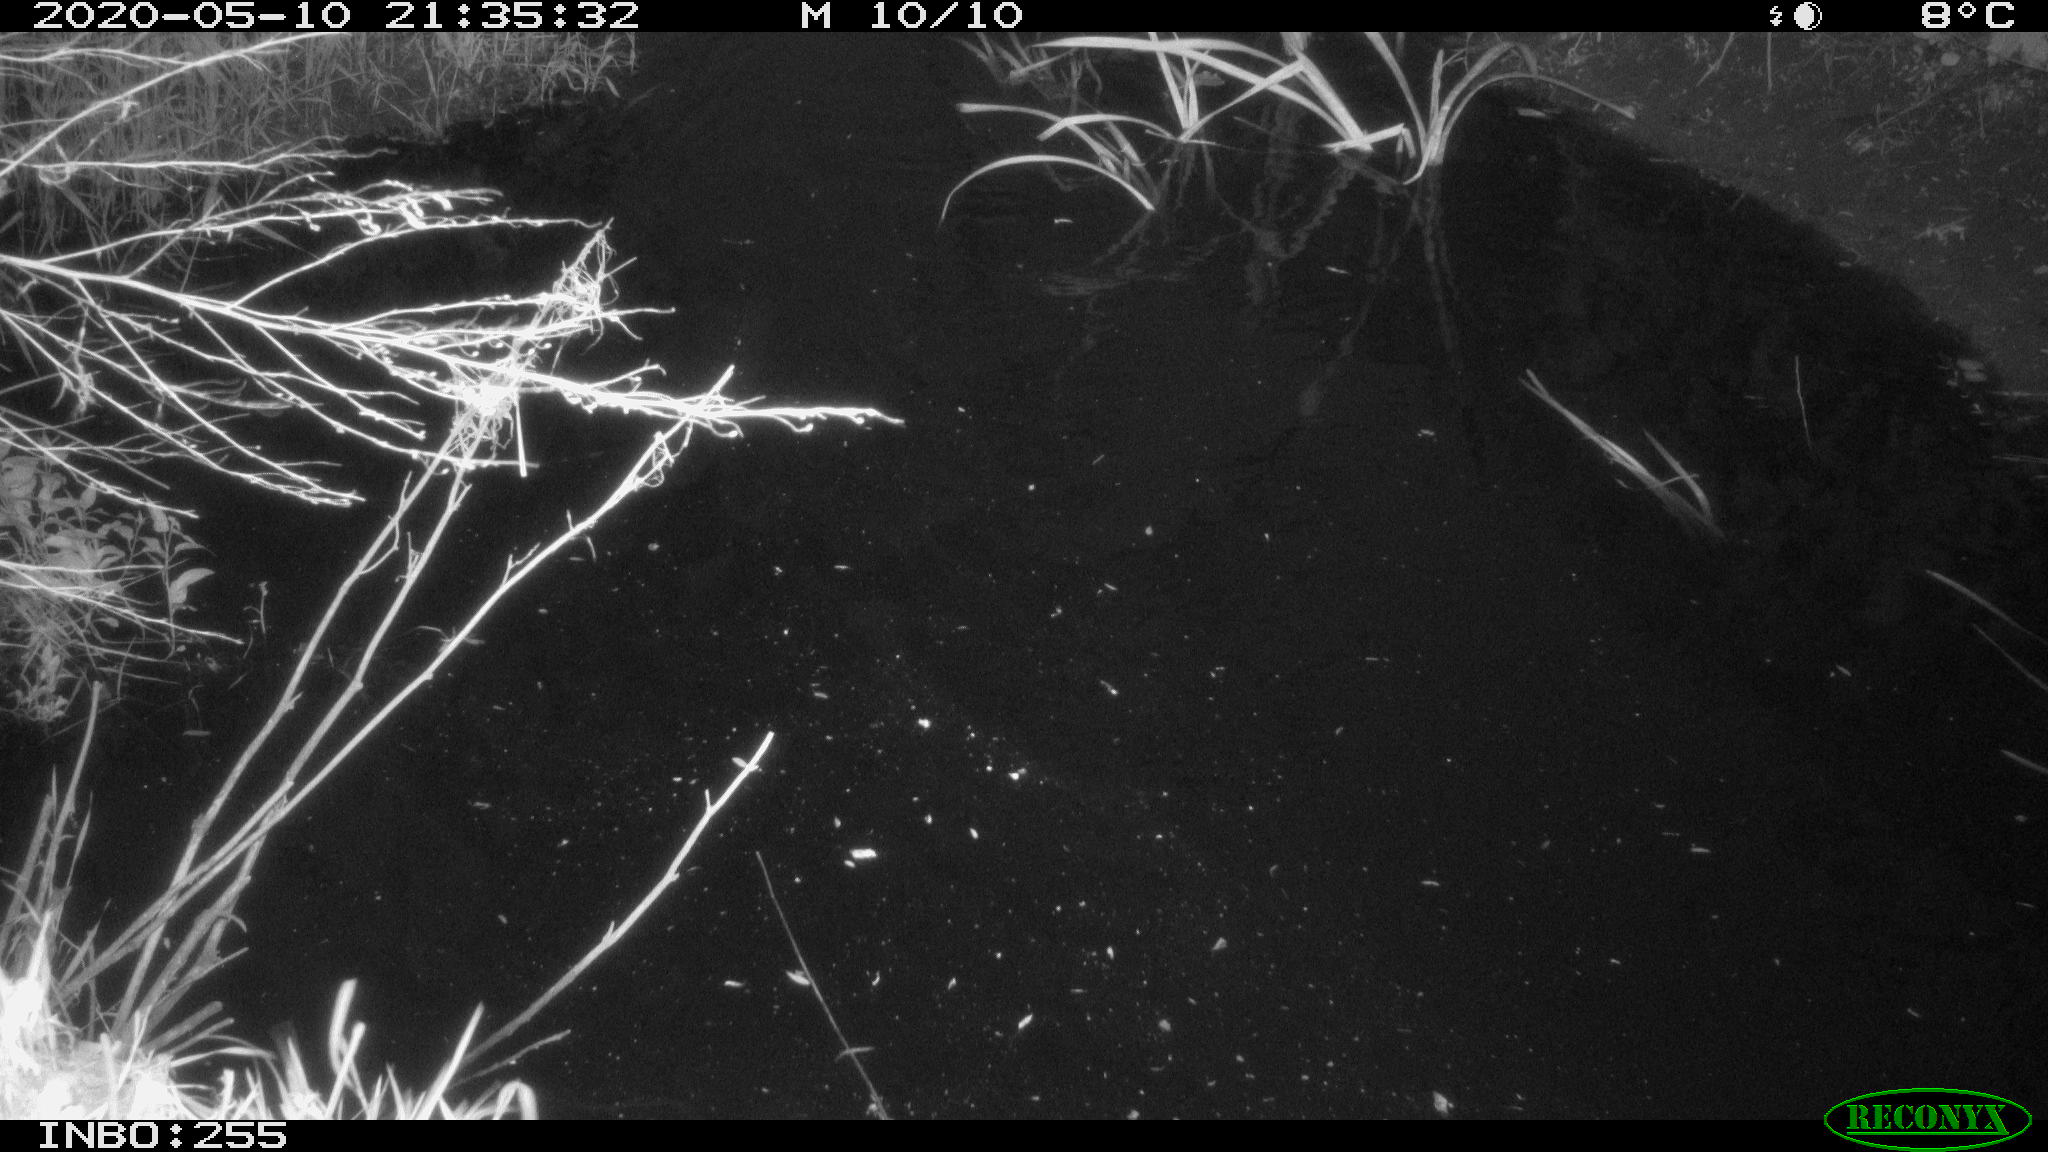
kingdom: Animalia
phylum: Chordata
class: Aves
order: Anseriformes
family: Anatidae
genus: Anas
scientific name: Anas platyrhynchos
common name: Mallard
